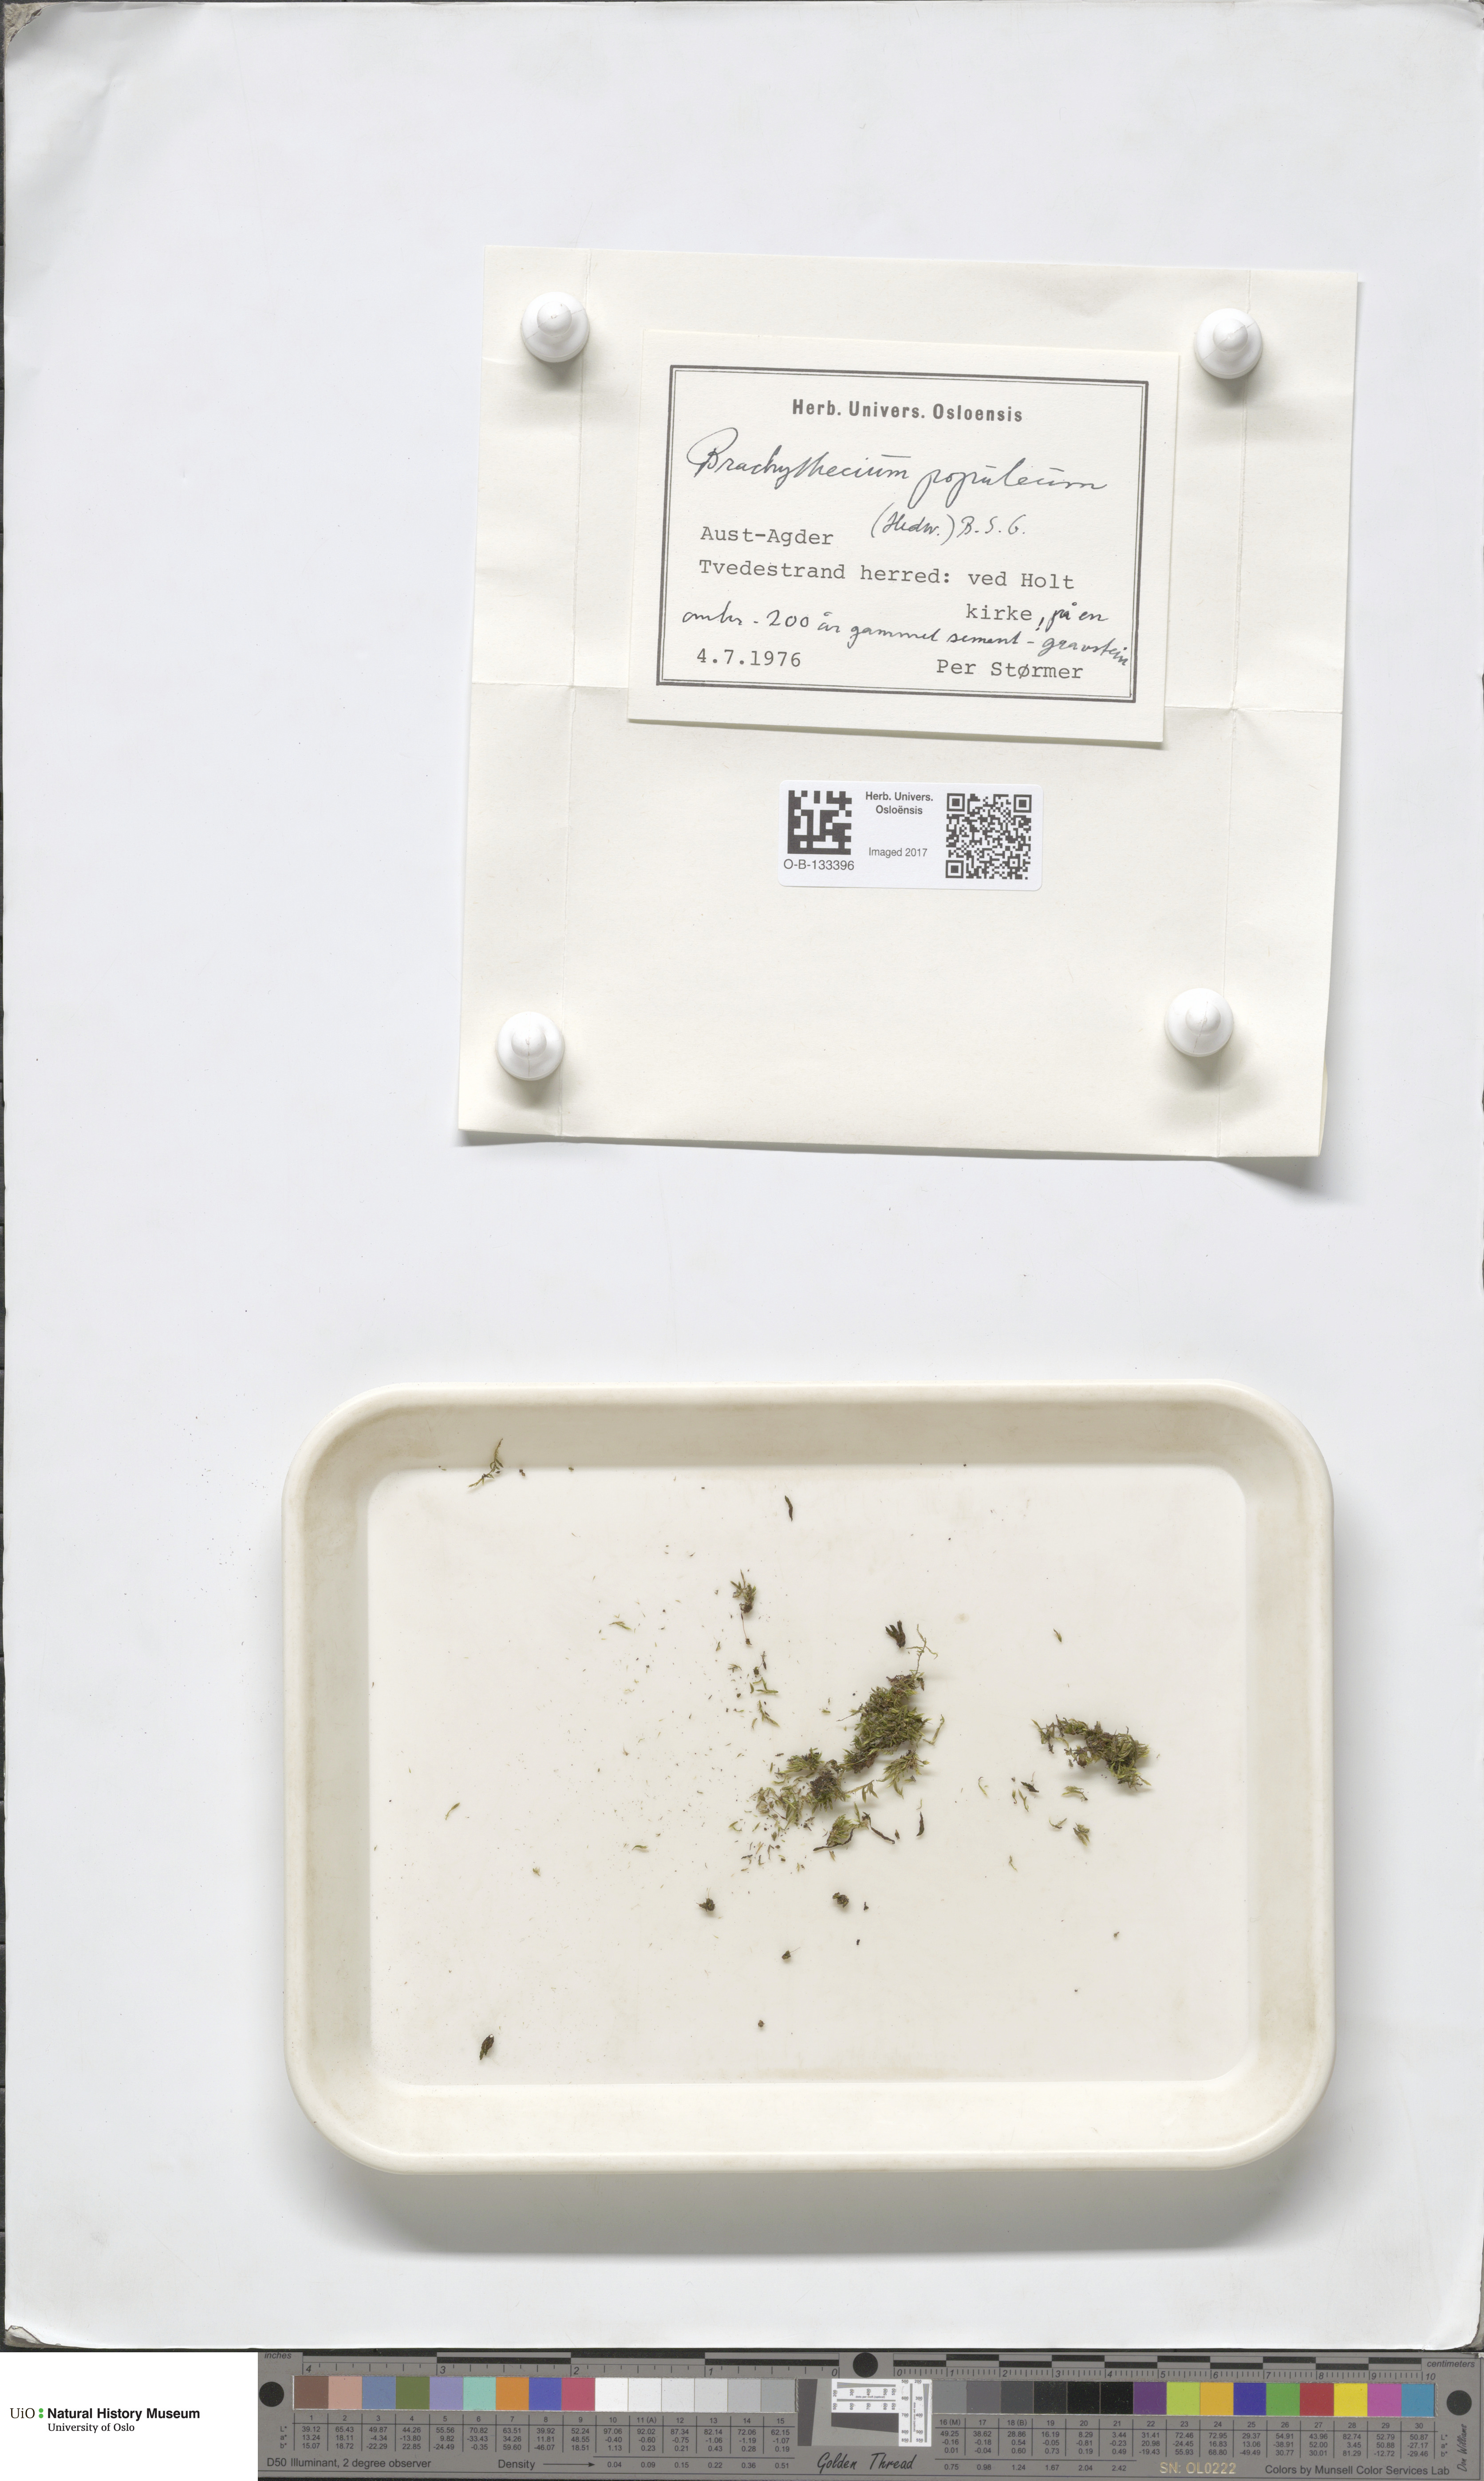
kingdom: Plantae
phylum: Bryophyta
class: Bryopsida
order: Hypnales
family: Brachytheciaceae
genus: Sciuro-hypnum
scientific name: Sciuro-hypnum plumosum
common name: Rusty feather-moss
